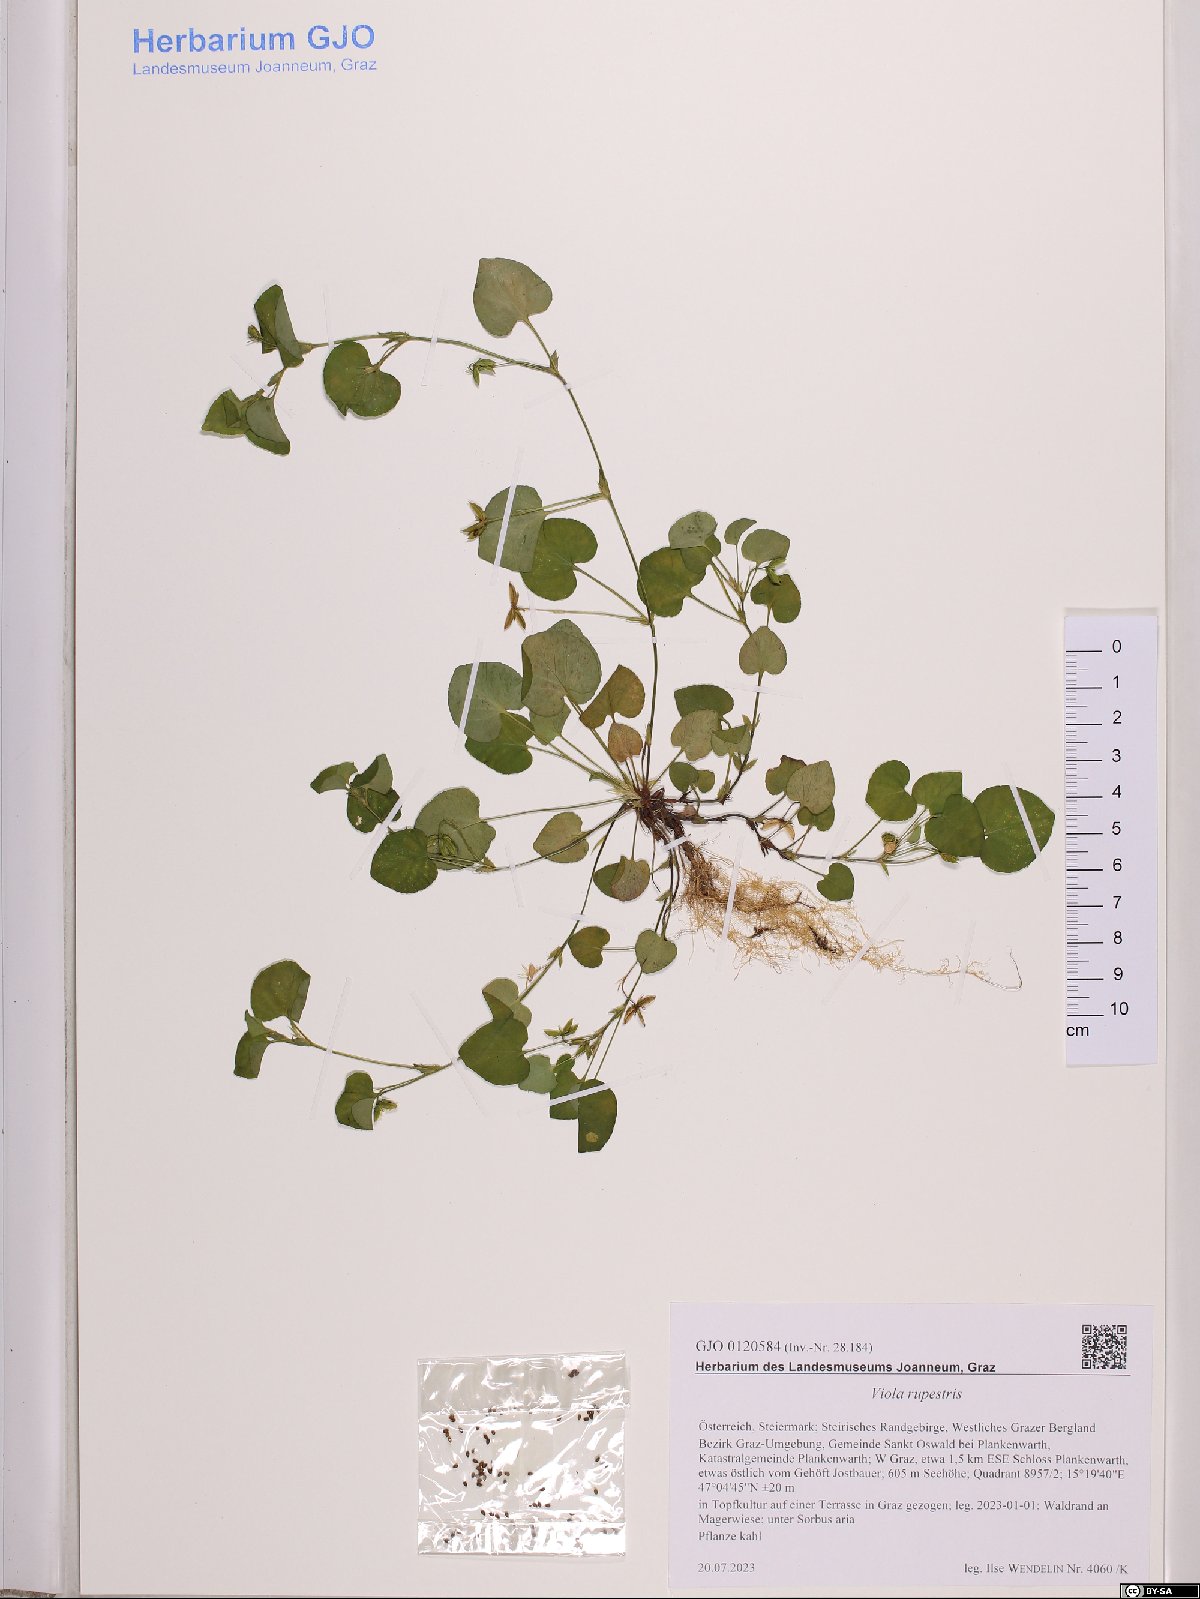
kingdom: Plantae
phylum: Tracheophyta
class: Magnoliopsida
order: Malpighiales
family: Violaceae
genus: Viola
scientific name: Viola rupestris
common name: Teesdale violet
